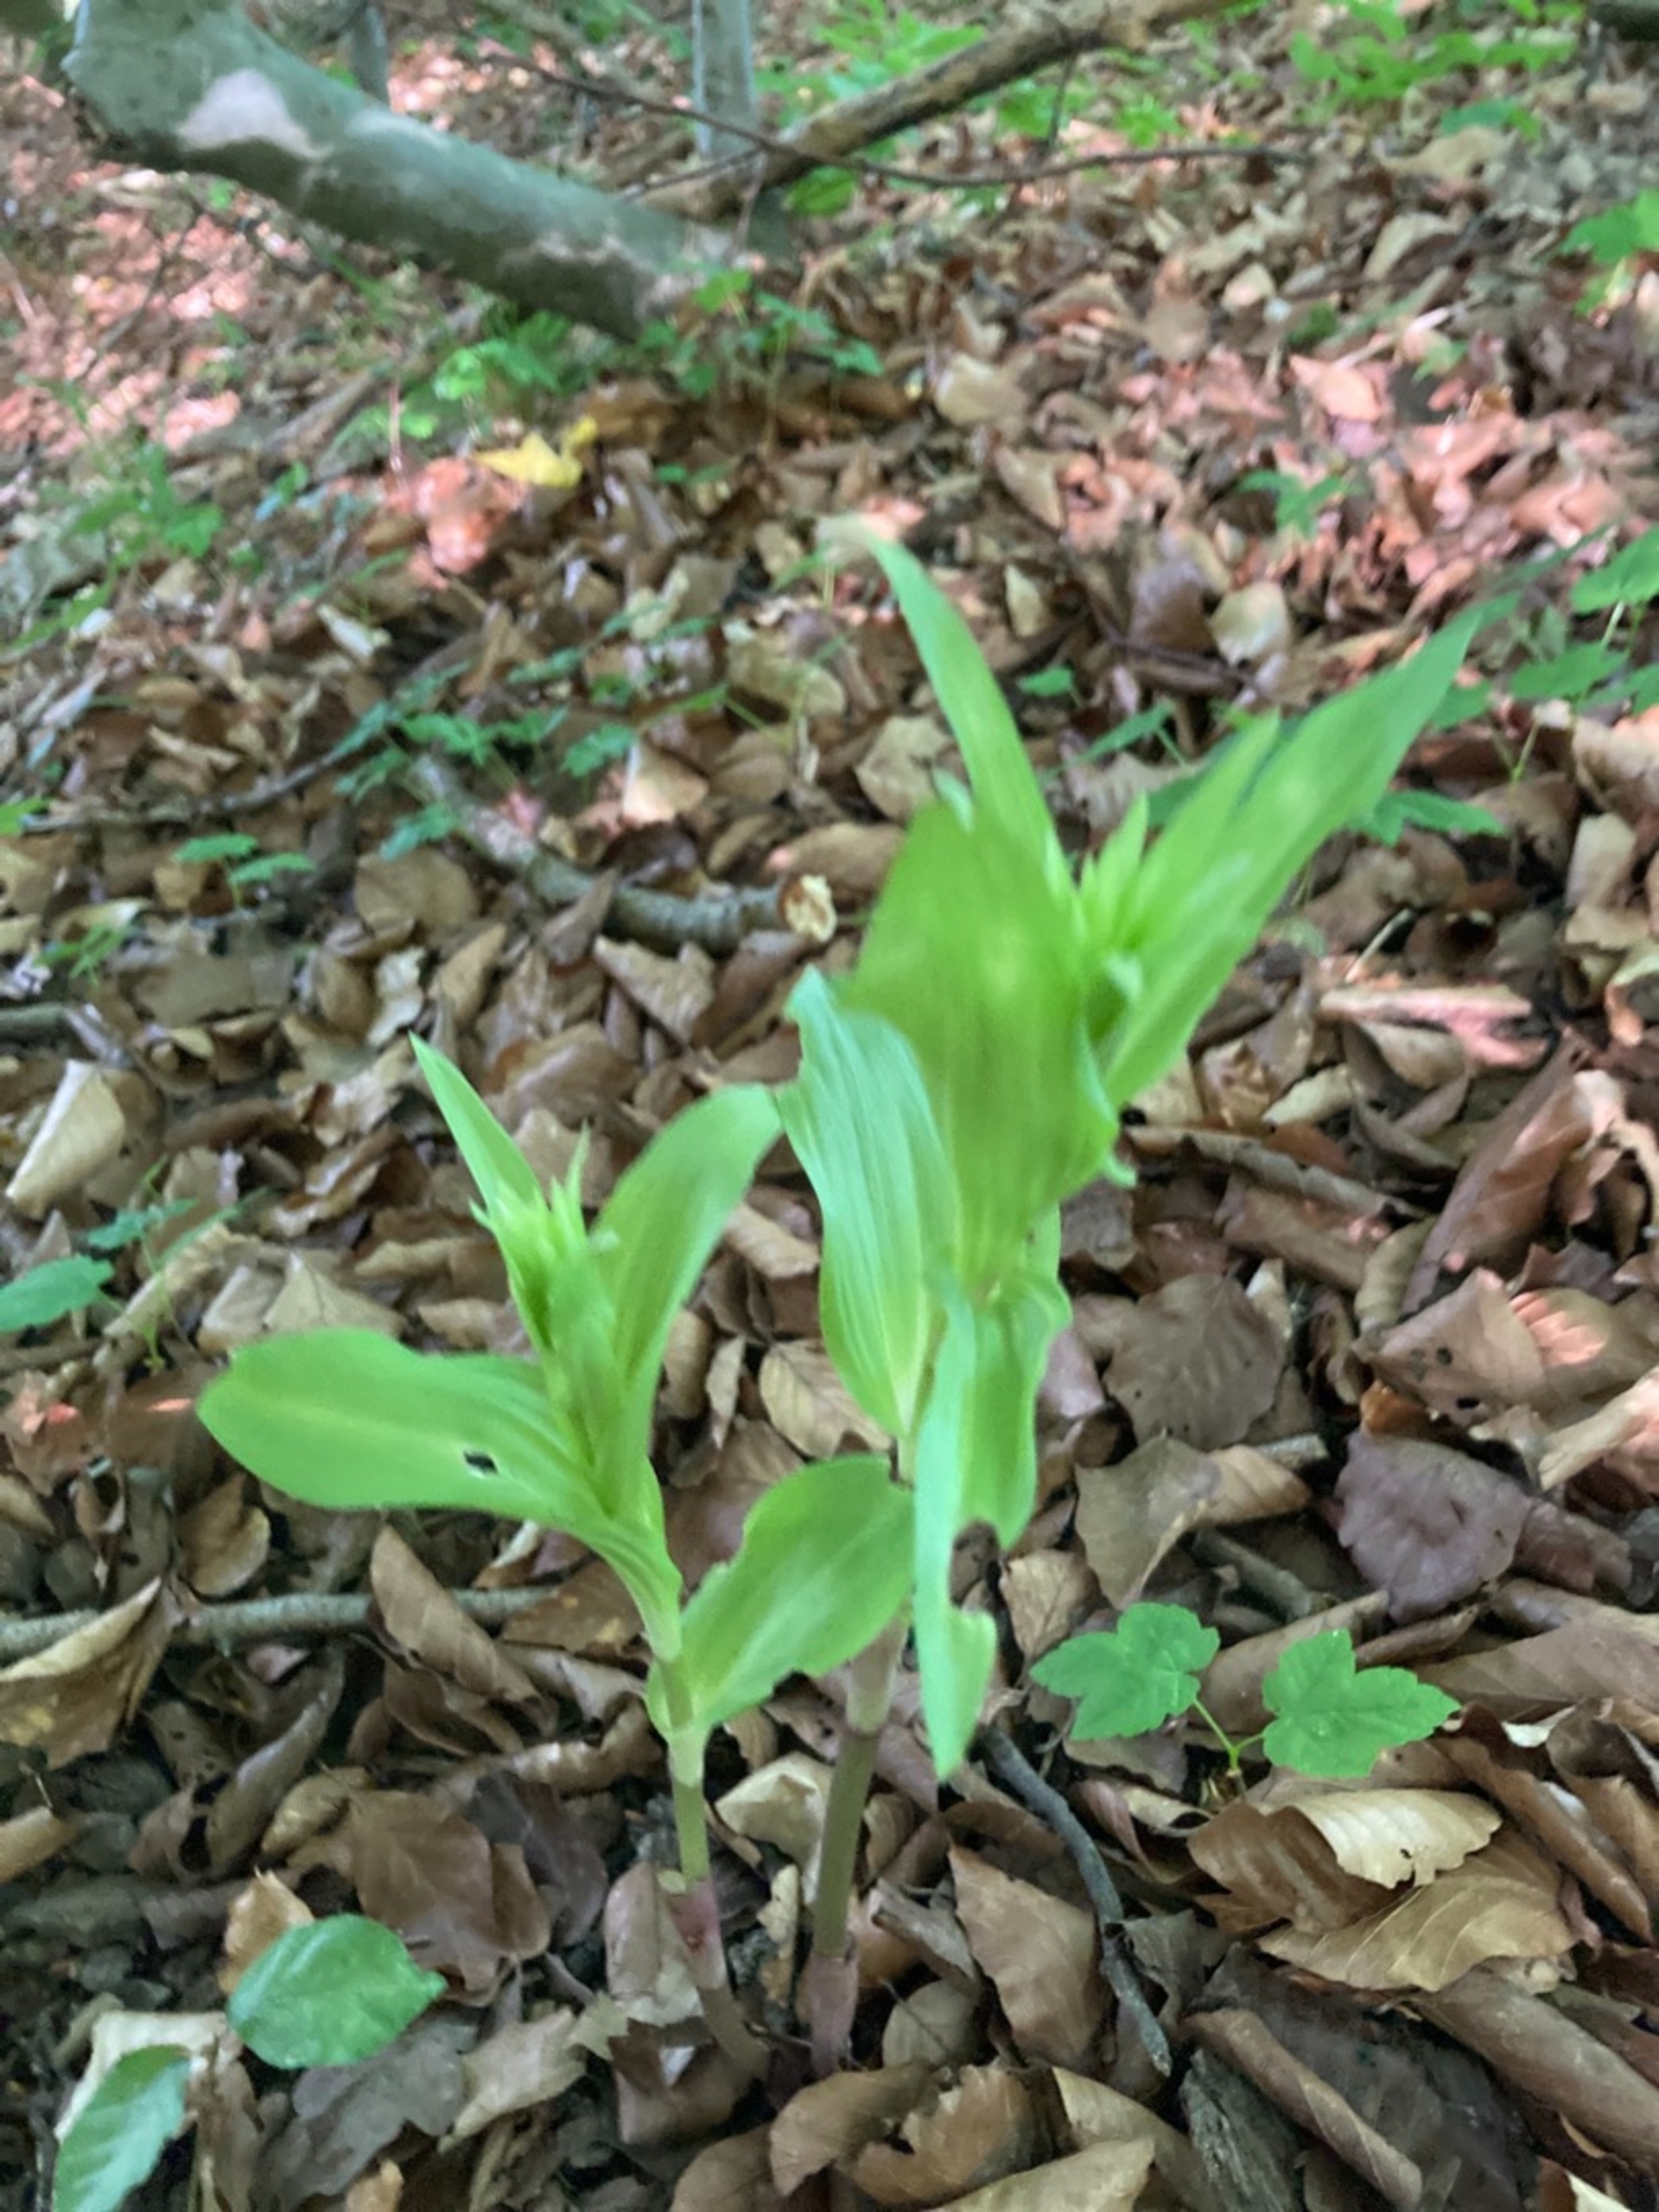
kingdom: Plantae
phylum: Tracheophyta
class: Liliopsida
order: Asparagales
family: Orchidaceae
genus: Cephalanthera
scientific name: Cephalanthera
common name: Skovliljeslægten
